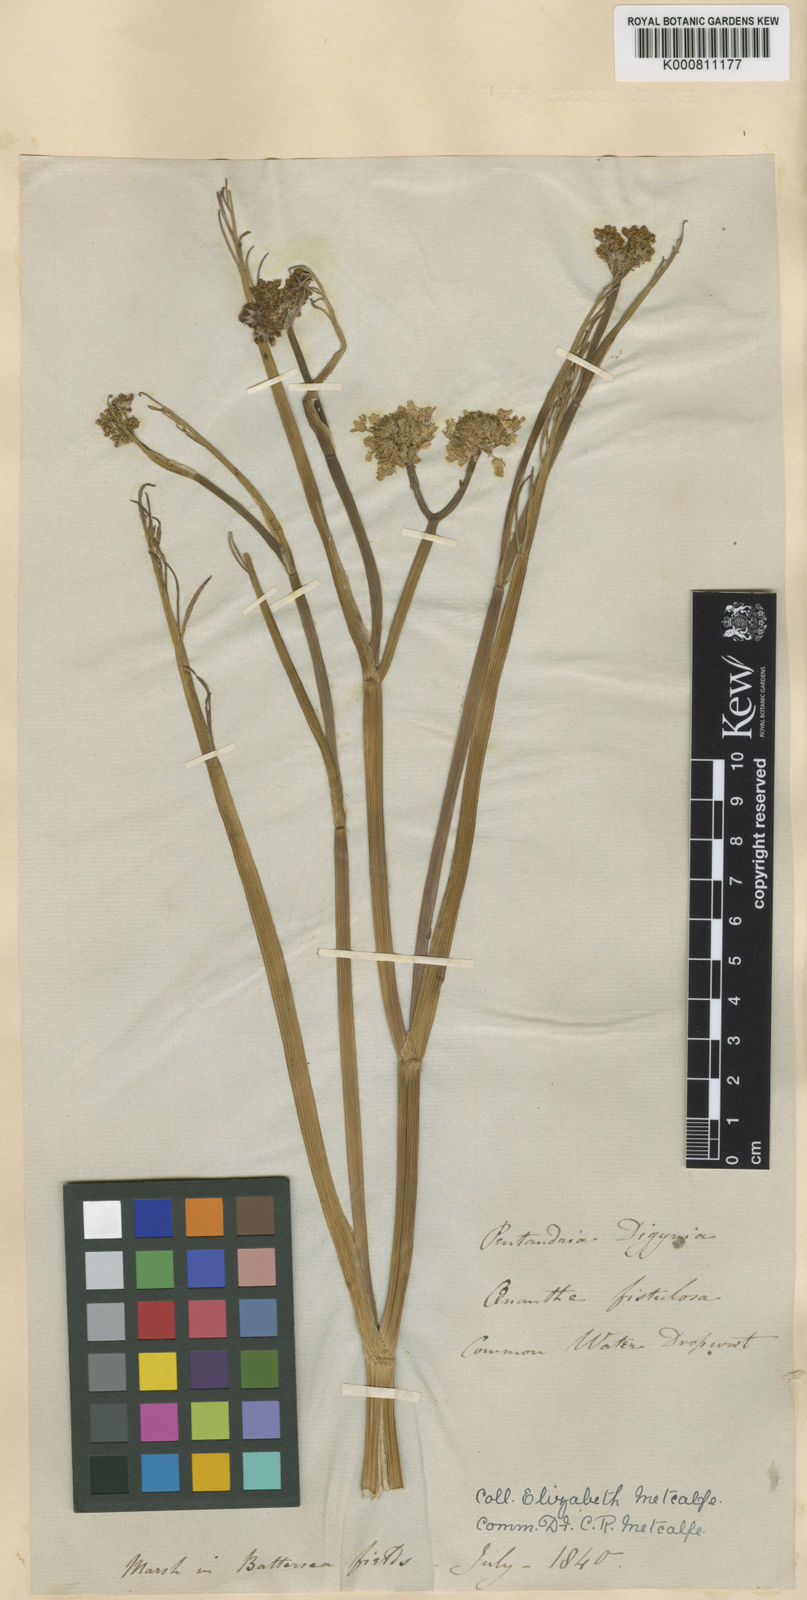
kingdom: Plantae
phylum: Tracheophyta
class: Magnoliopsida
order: Apiales
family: Apiaceae
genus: Oenanthe
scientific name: Oenanthe fistulosa
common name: Tubular water-dropwort
